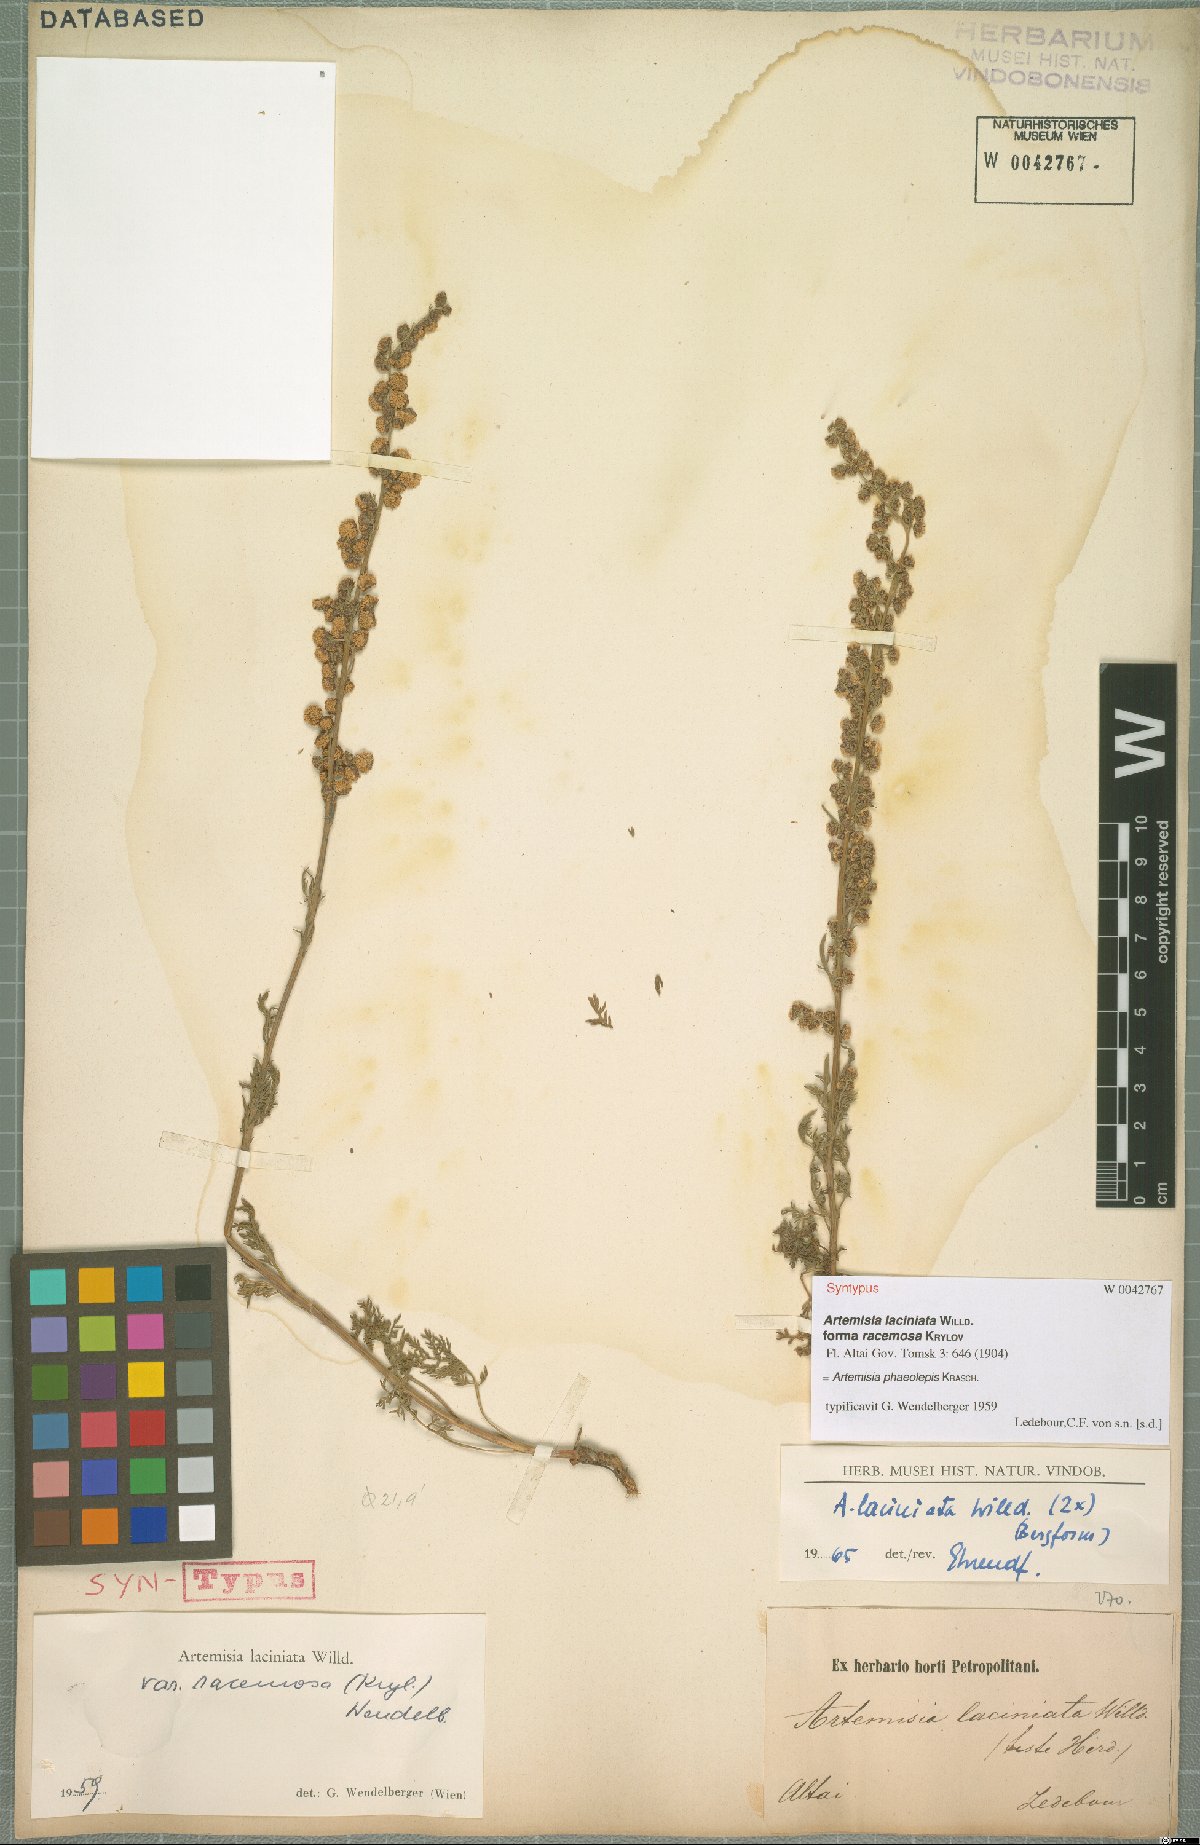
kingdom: Plantae
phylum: Tracheophyta
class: Magnoliopsida
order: Asterales
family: Asteraceae
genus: Artemisia
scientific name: Artemisia phaeolepis
